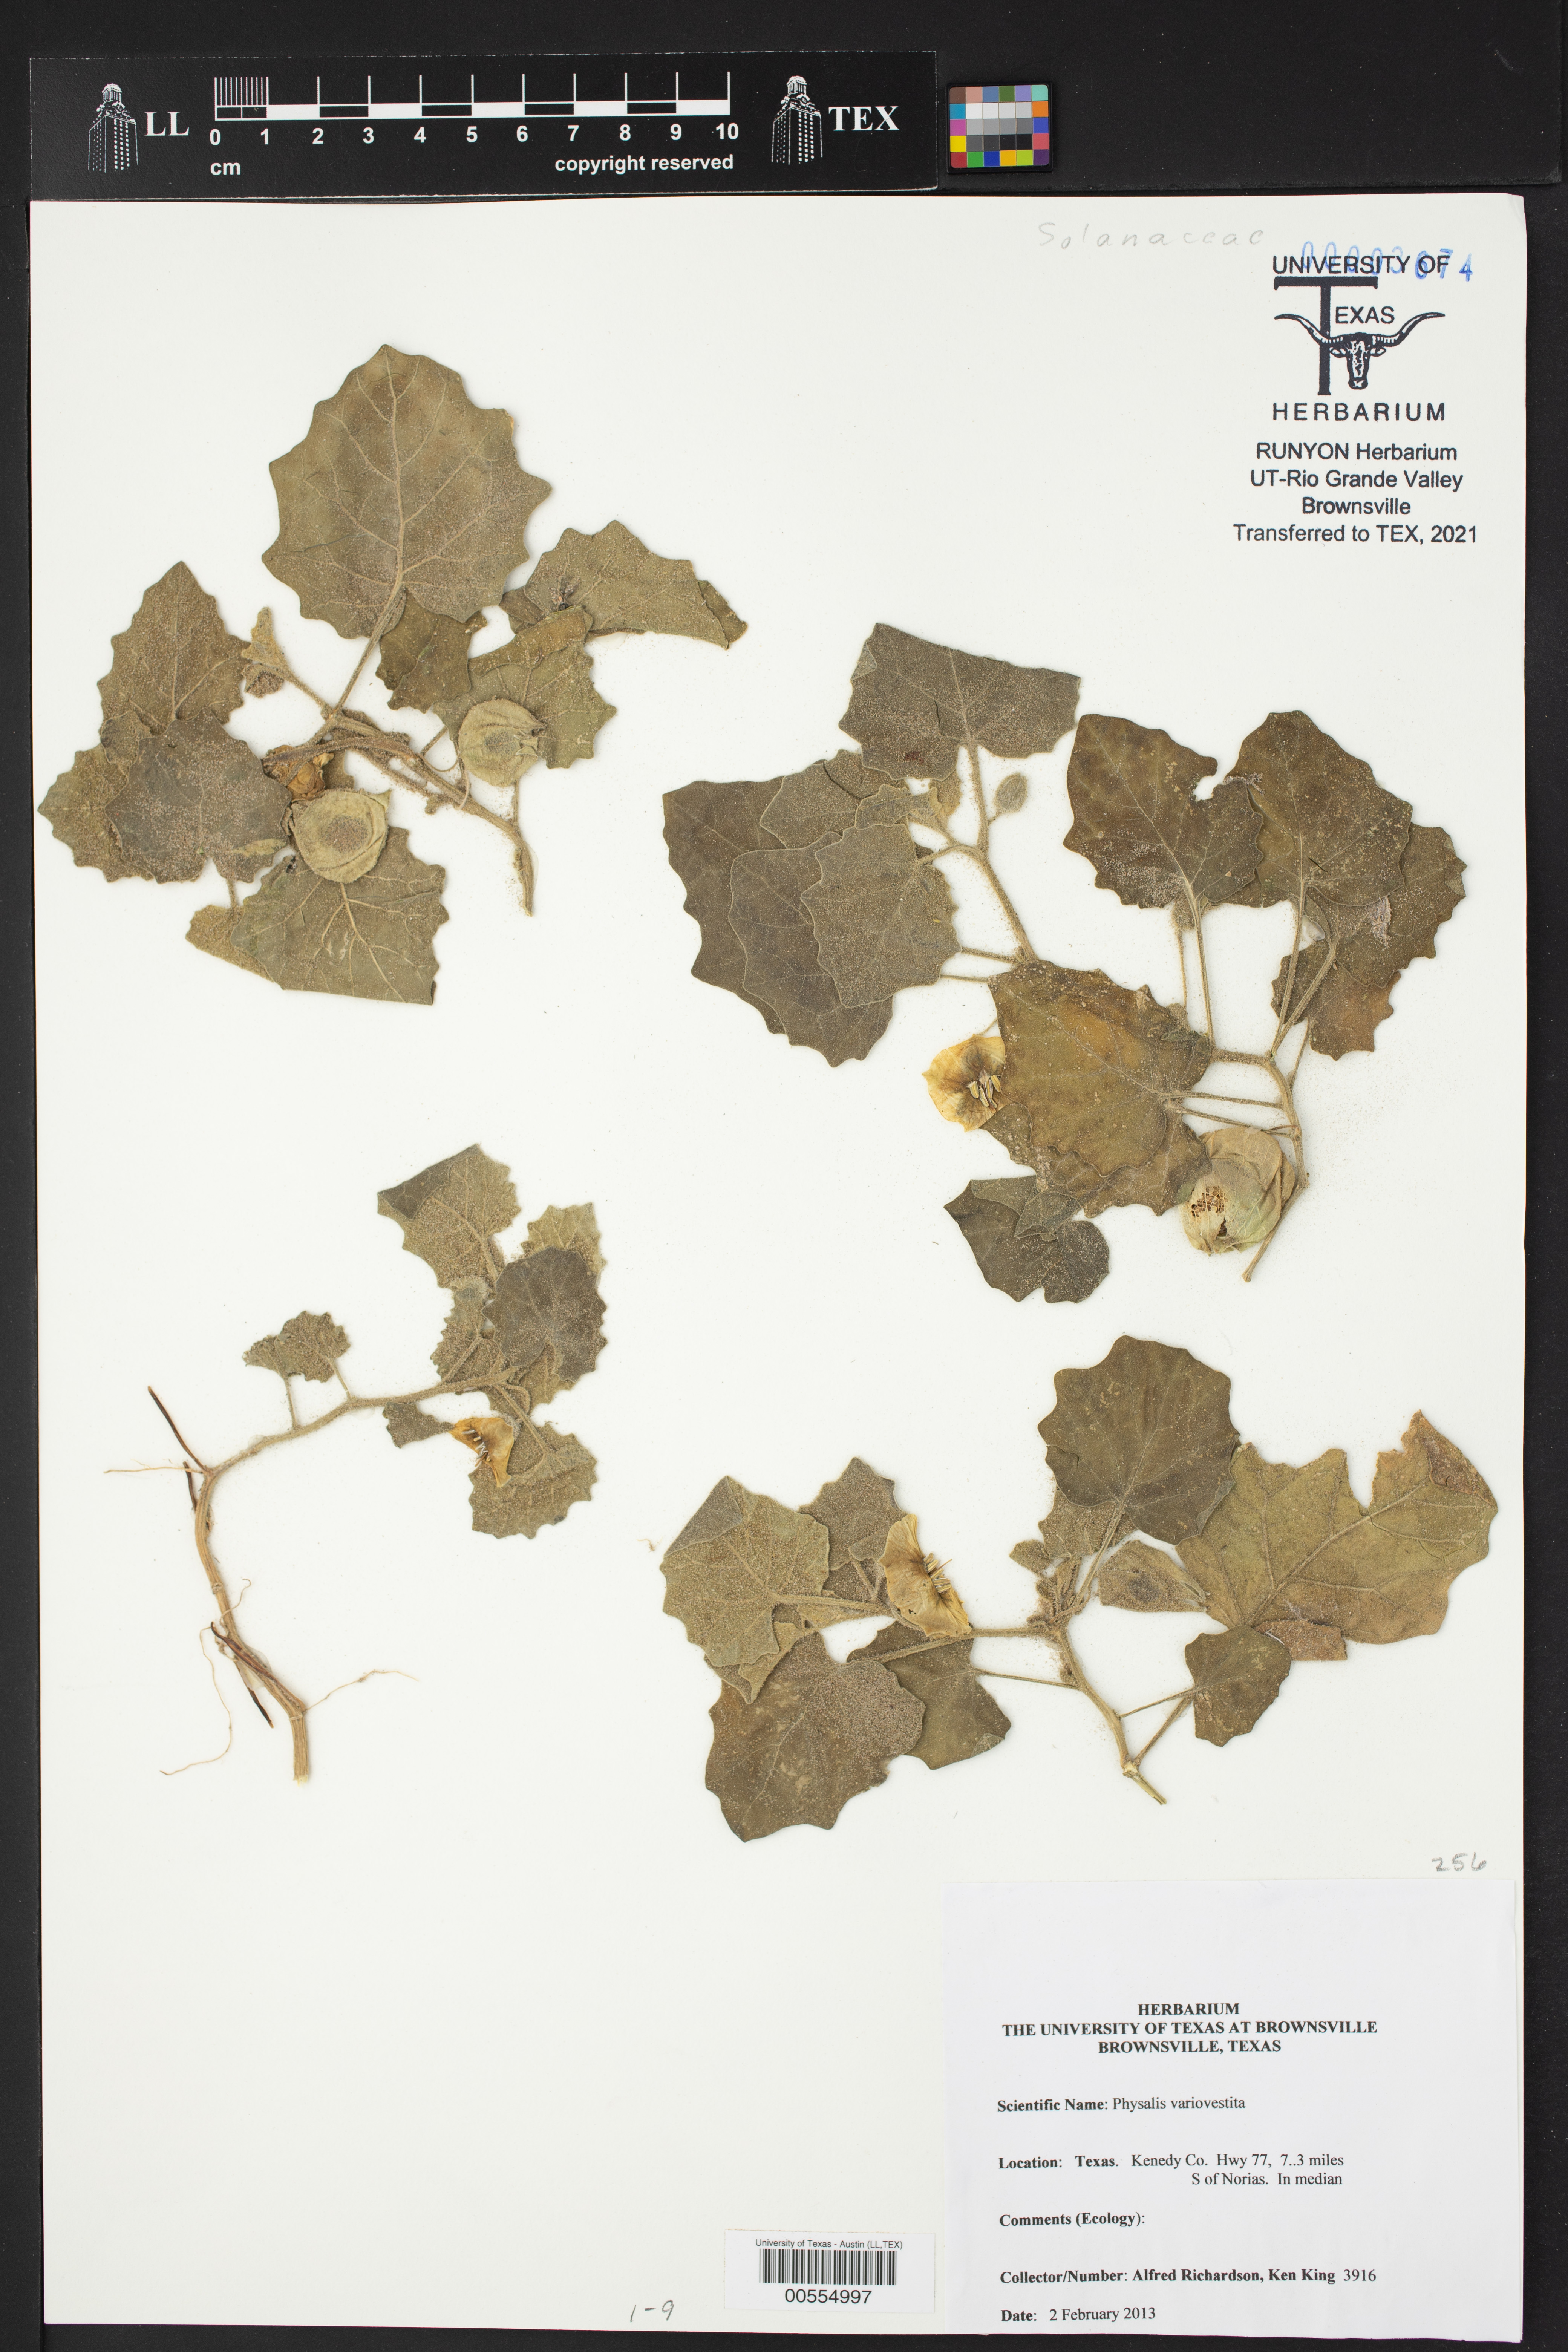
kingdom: Plantae
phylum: Tracheophyta
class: Magnoliopsida
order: Solanales
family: Solanaceae
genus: Physalis
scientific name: Physalis mollis
